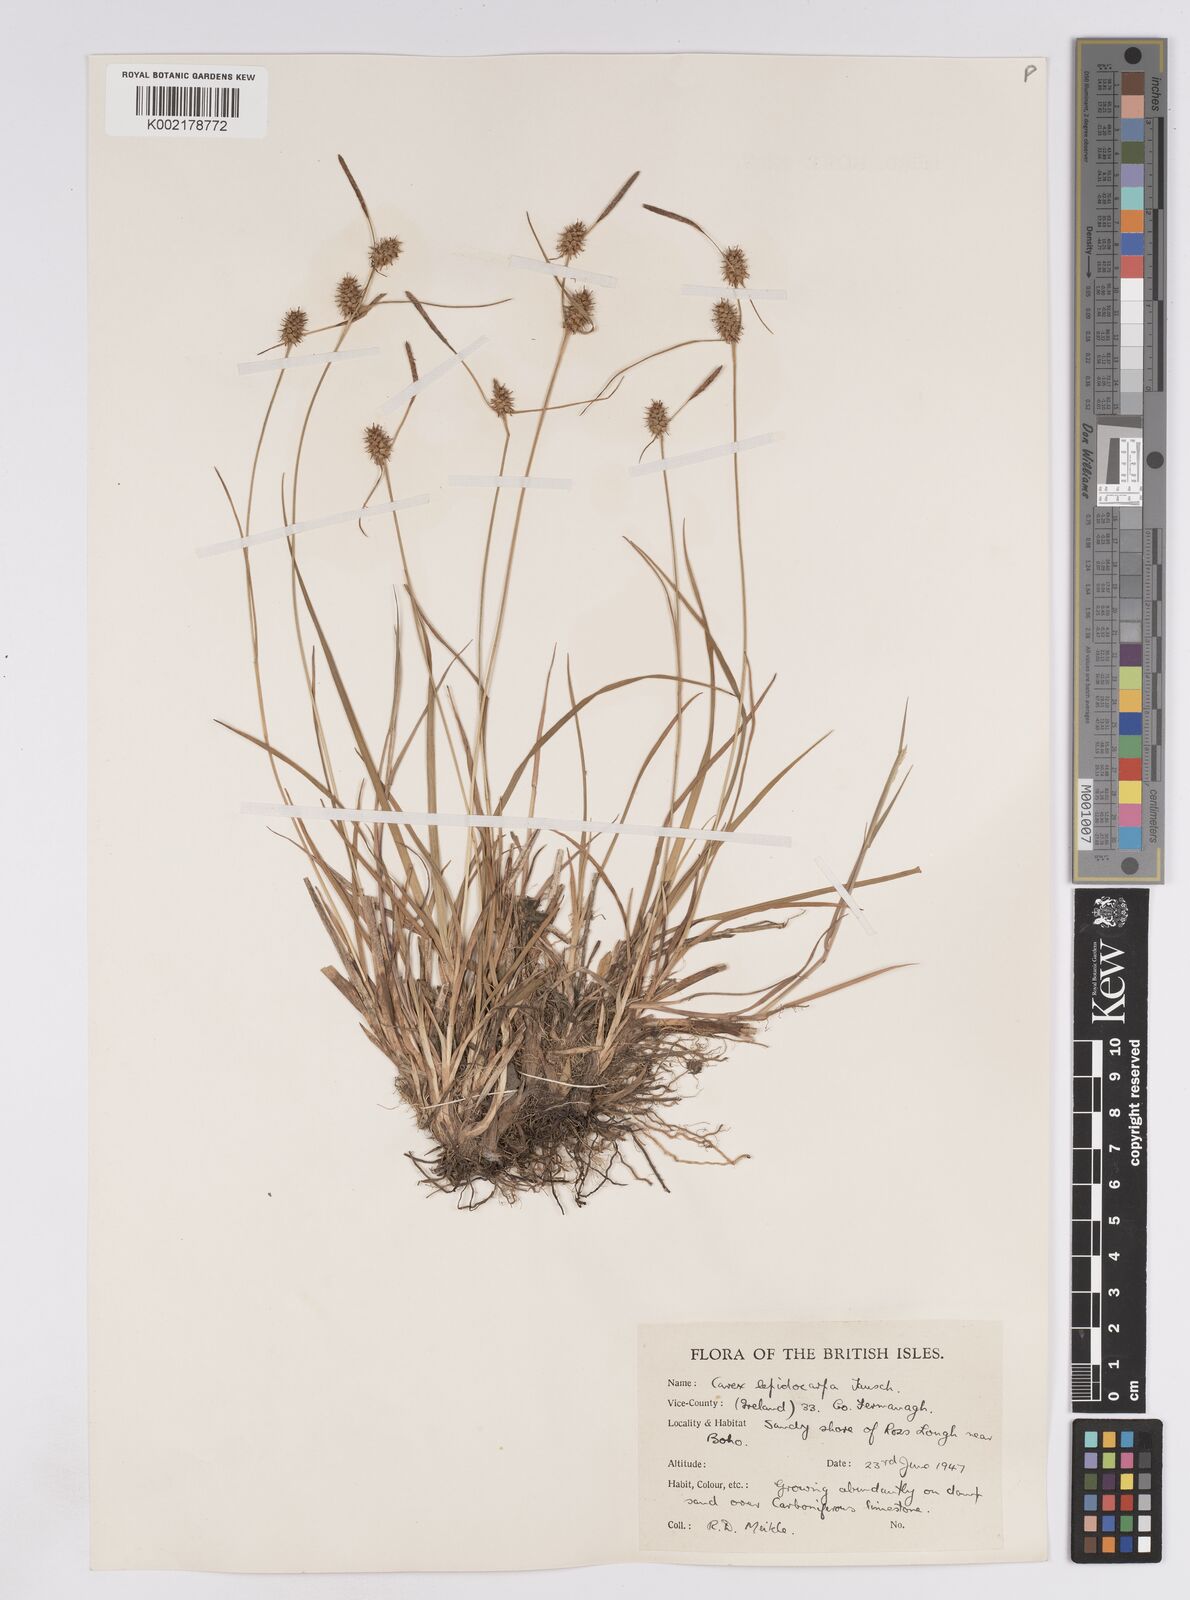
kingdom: Plantae
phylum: Tracheophyta
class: Liliopsida
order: Poales
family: Cyperaceae
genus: Carex
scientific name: Carex lepidocarpa
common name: Long-stalked yellow-sedge
